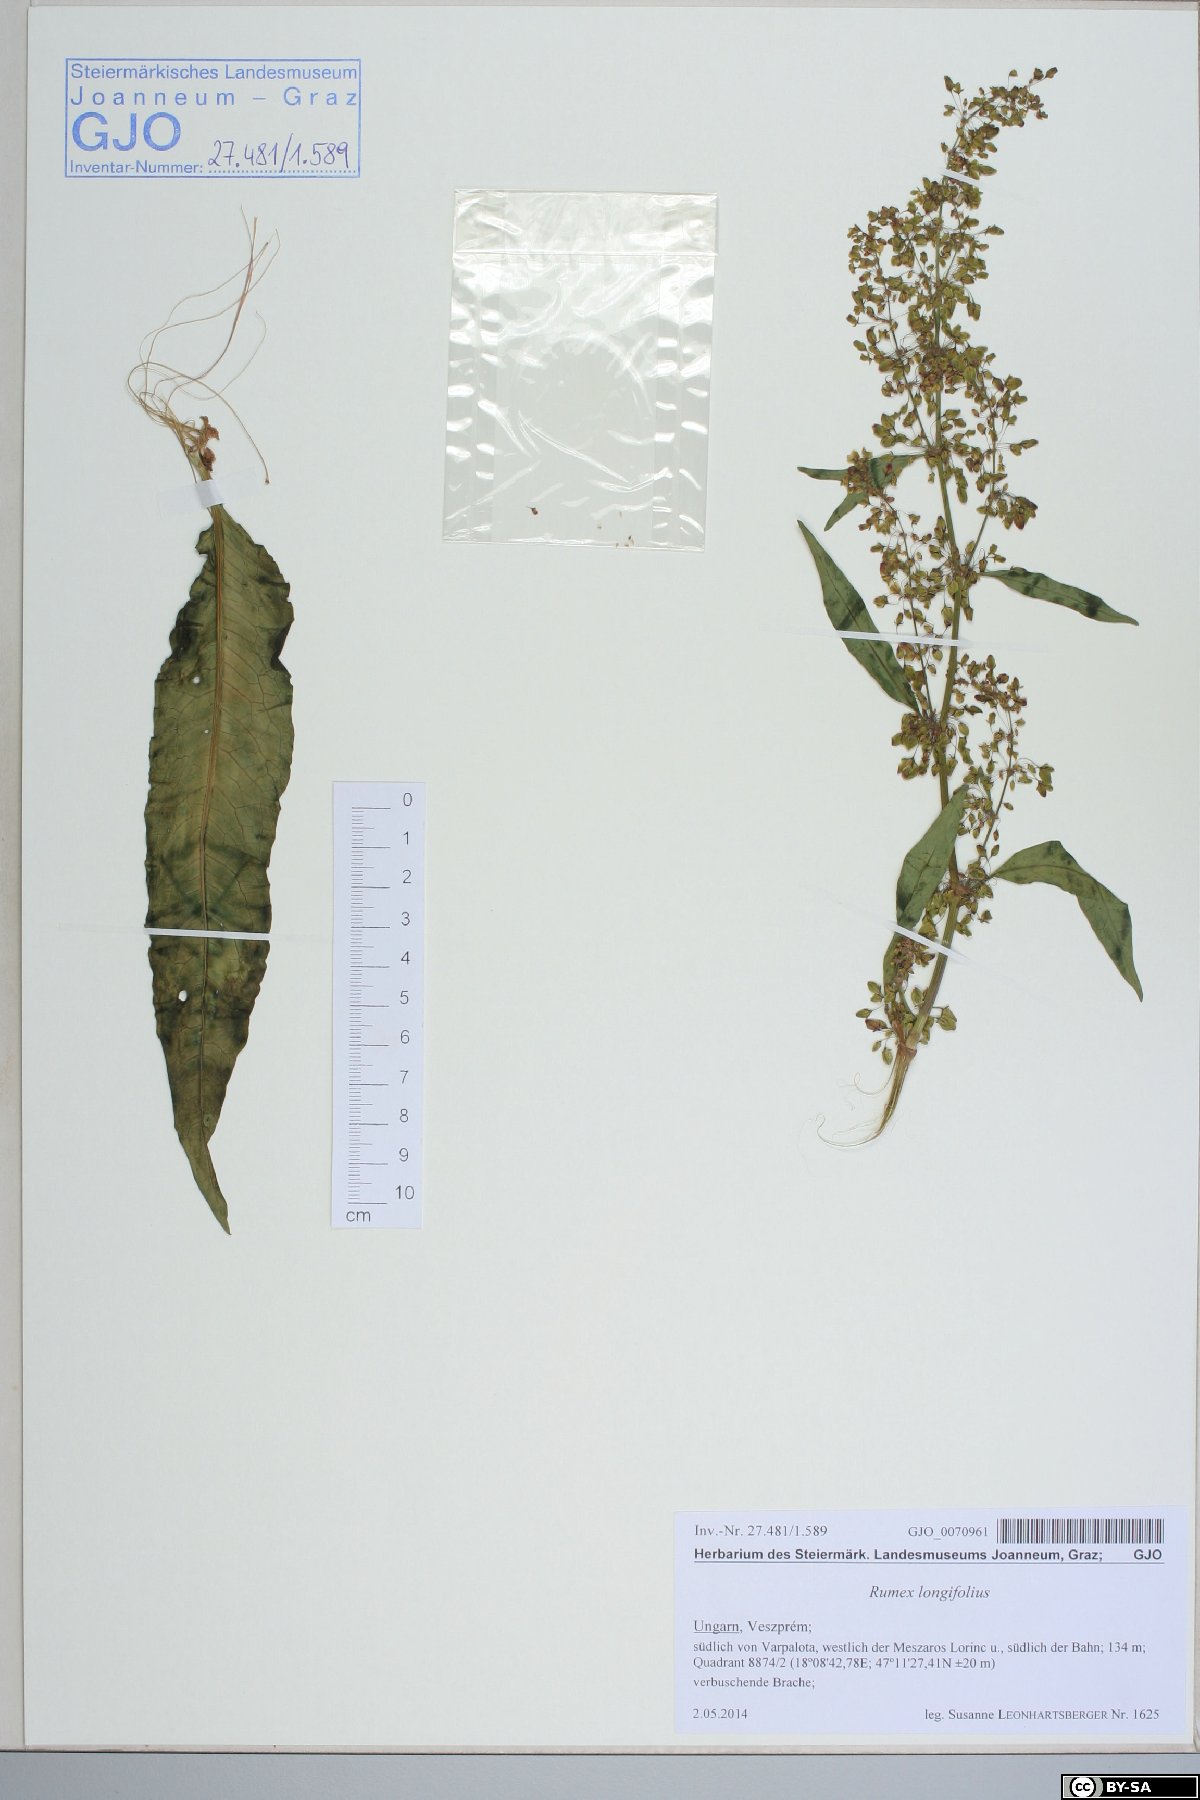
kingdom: Plantae
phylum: Tracheophyta
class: Magnoliopsida
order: Caryophyllales
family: Polygonaceae
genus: Rumex
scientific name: Rumex longifolius
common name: Dooryard dock
